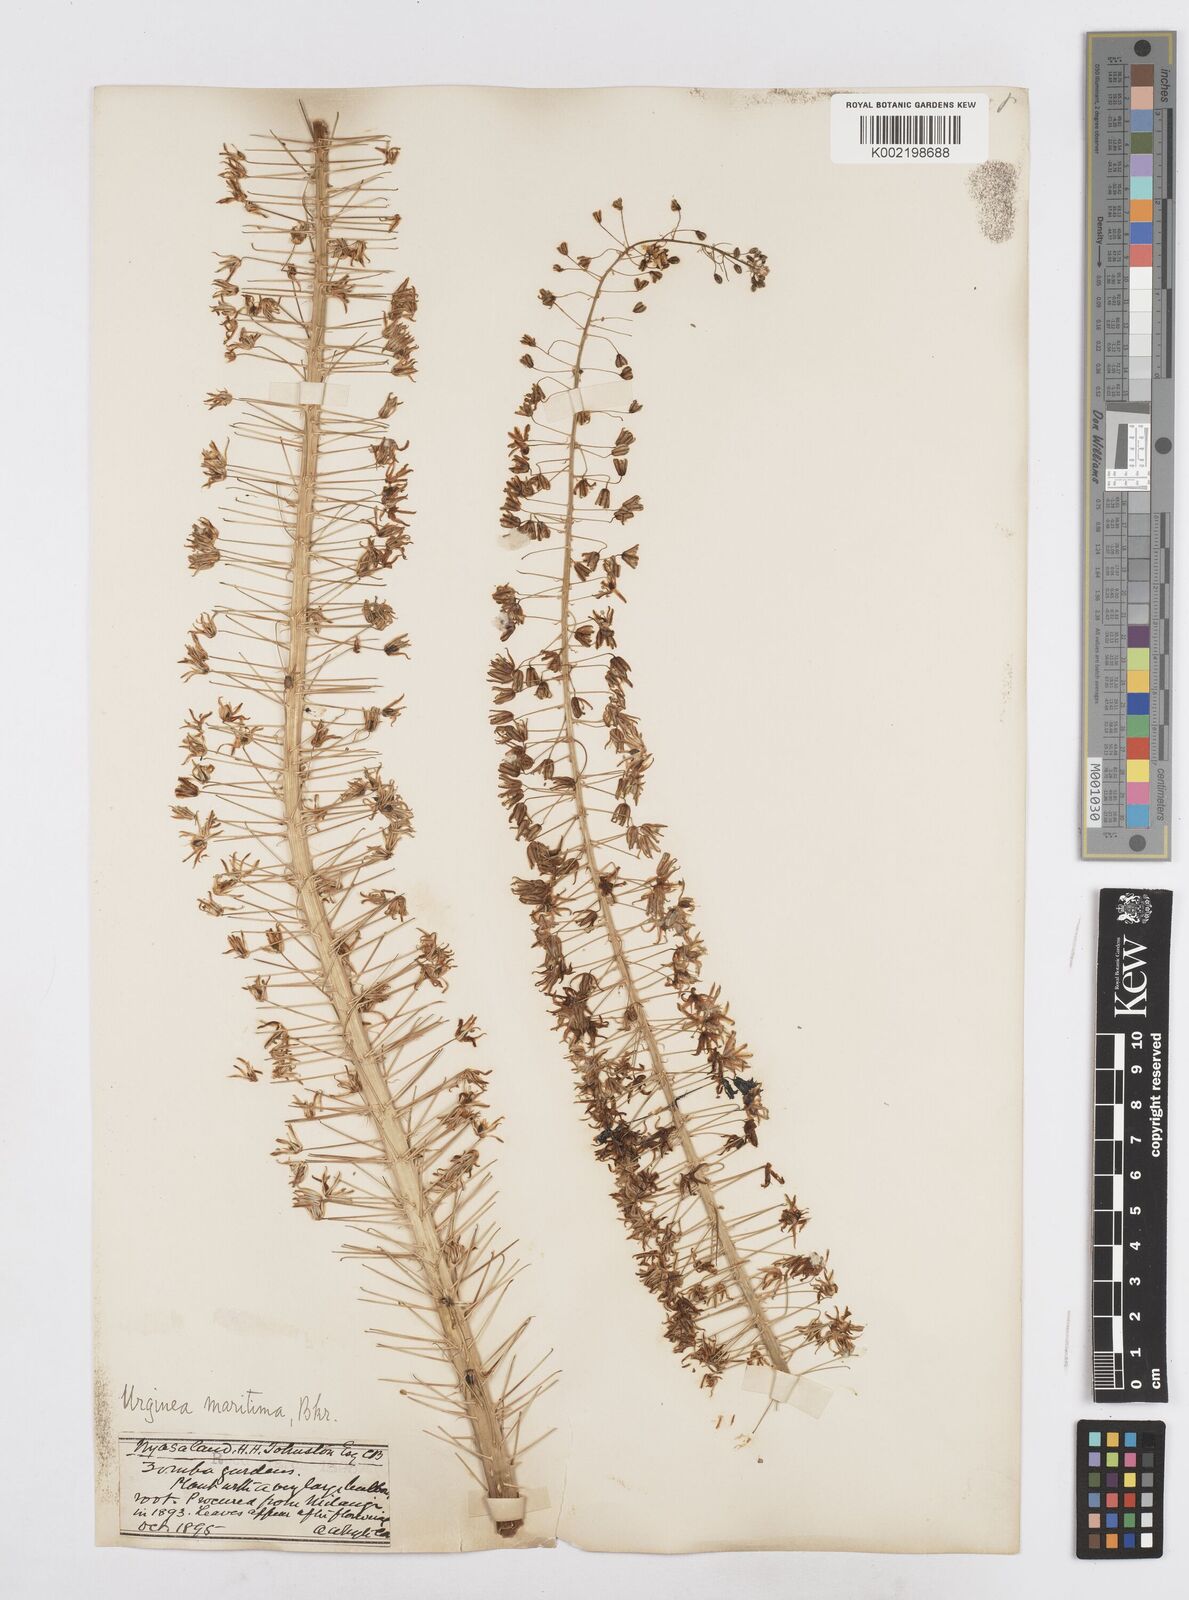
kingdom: Plantae
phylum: Tracheophyta
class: Liliopsida
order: Asparagales
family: Asparagaceae
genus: Drimia
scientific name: Drimia altissima
